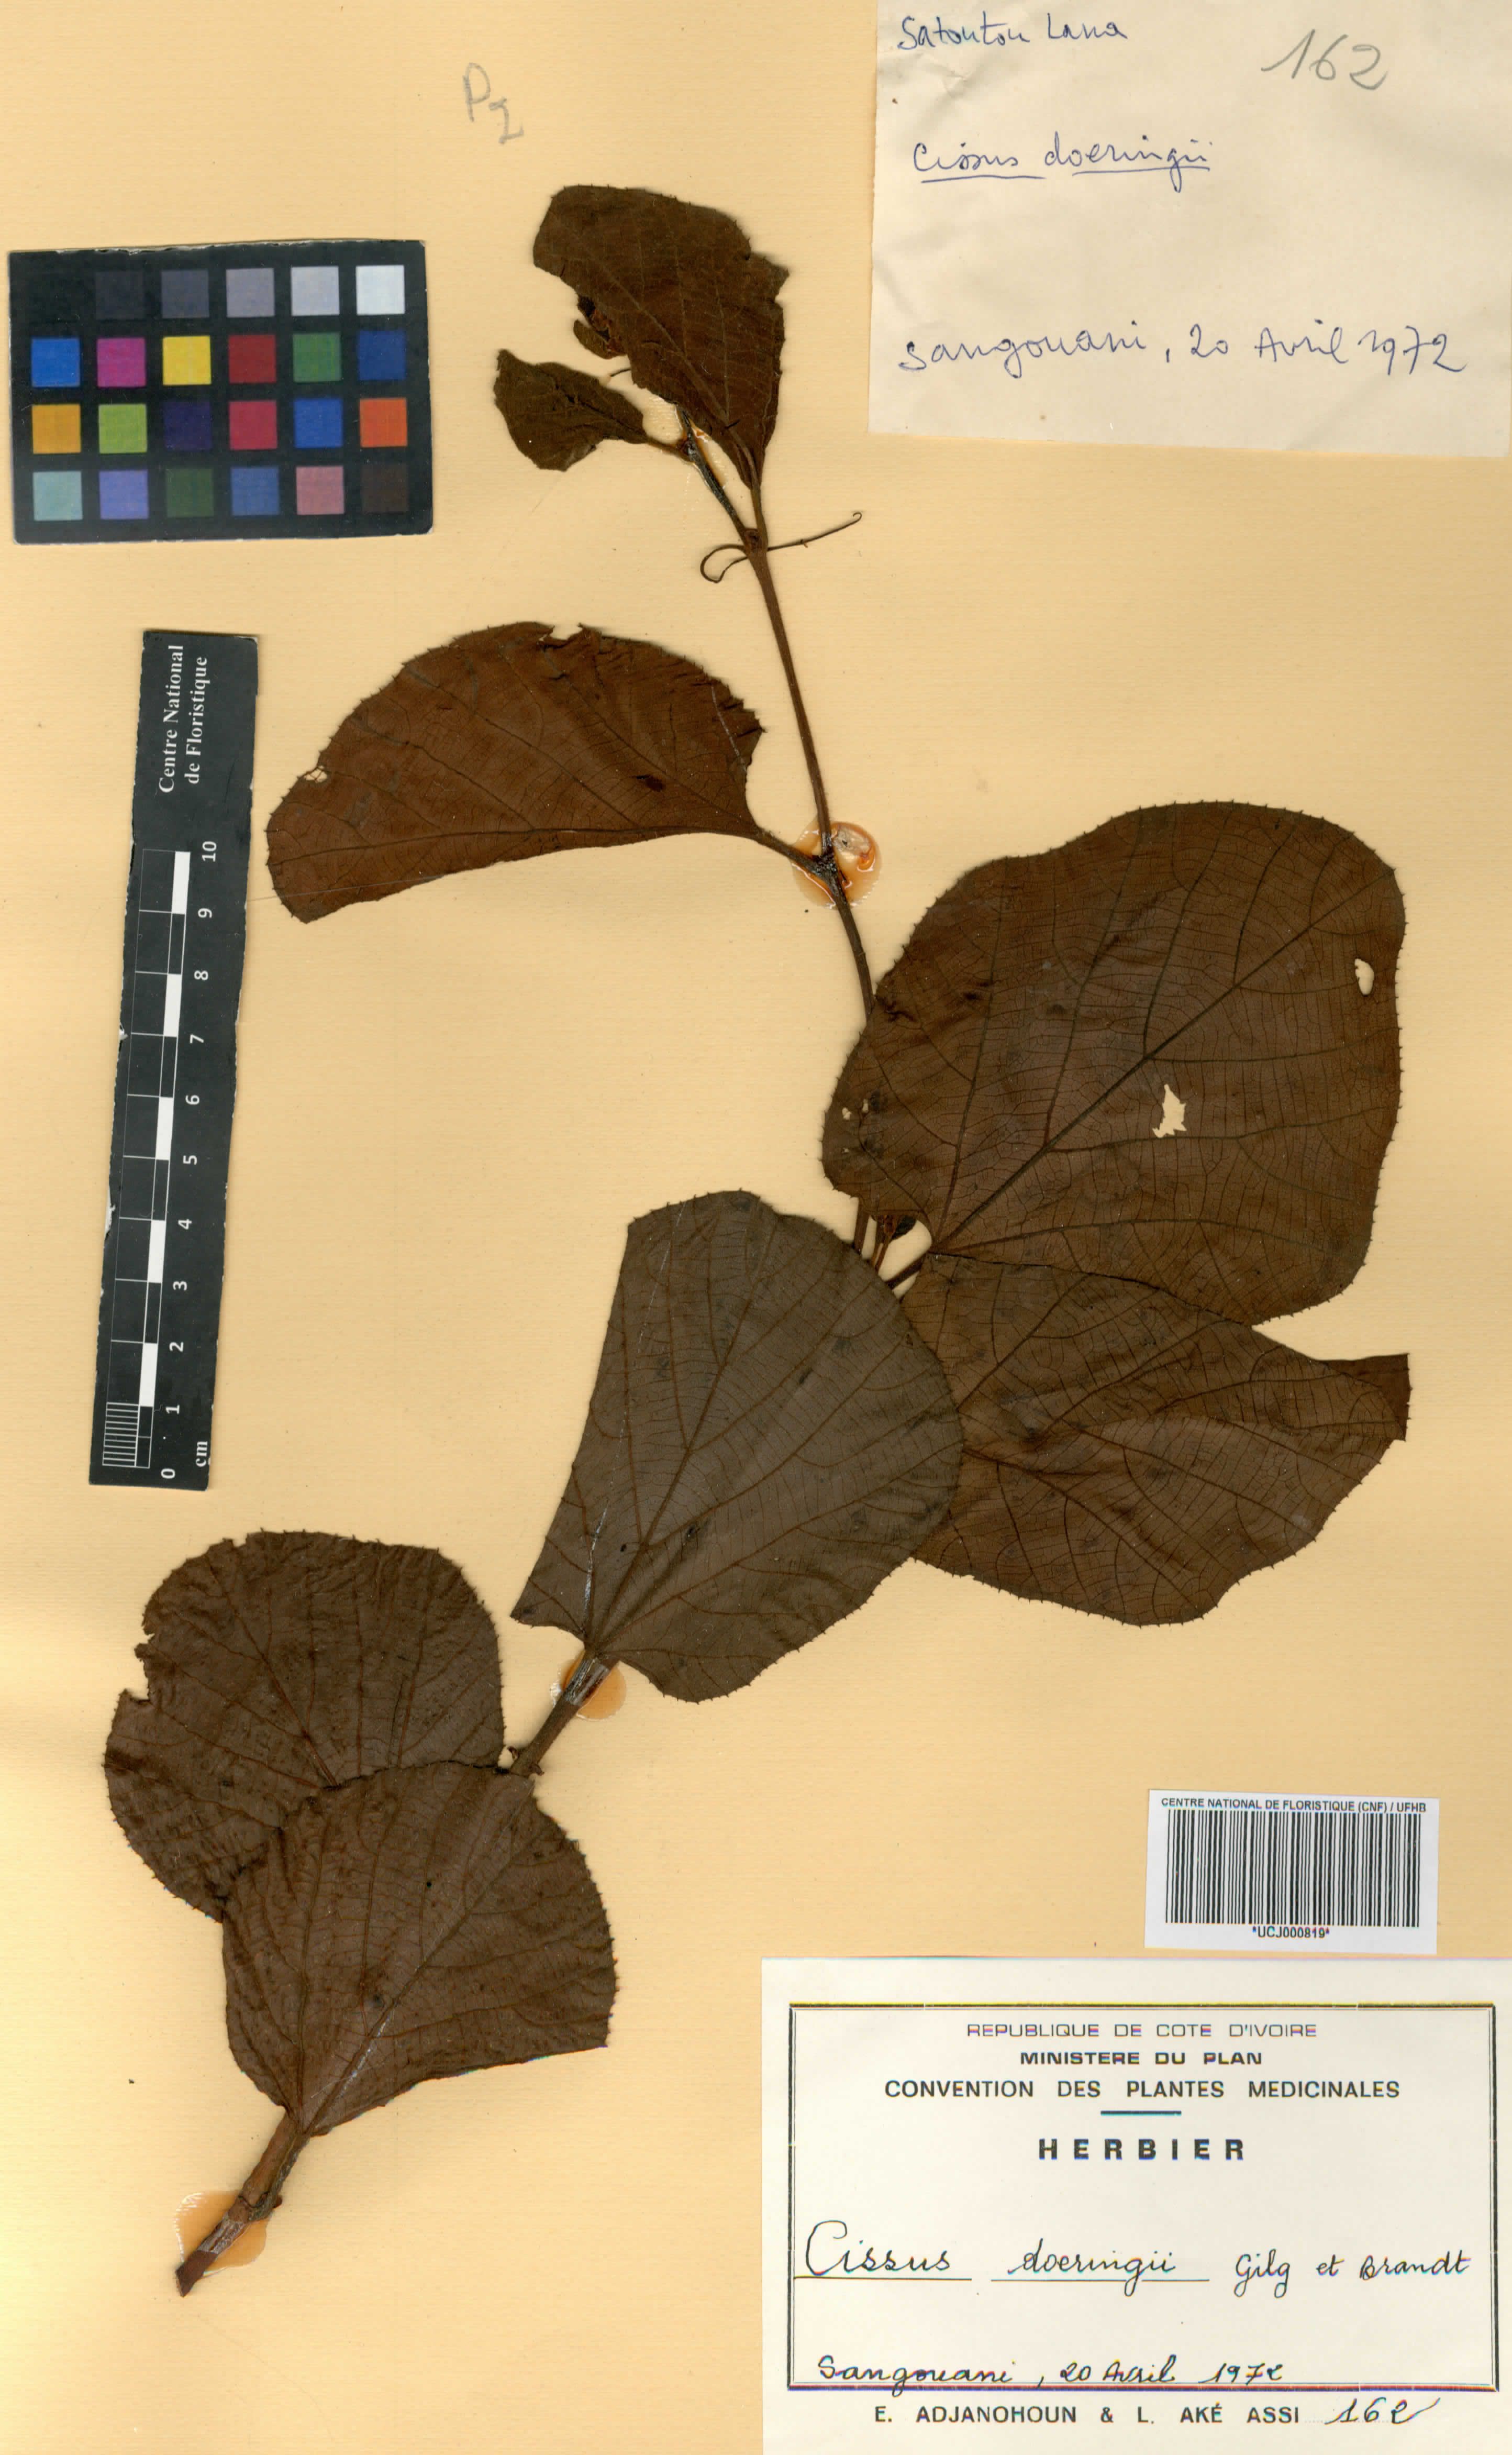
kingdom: Plantae
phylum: Tracheophyta
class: Magnoliopsida
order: Vitales
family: Vitaceae
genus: Cyphostemma
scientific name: Cyphostemma flavicans
